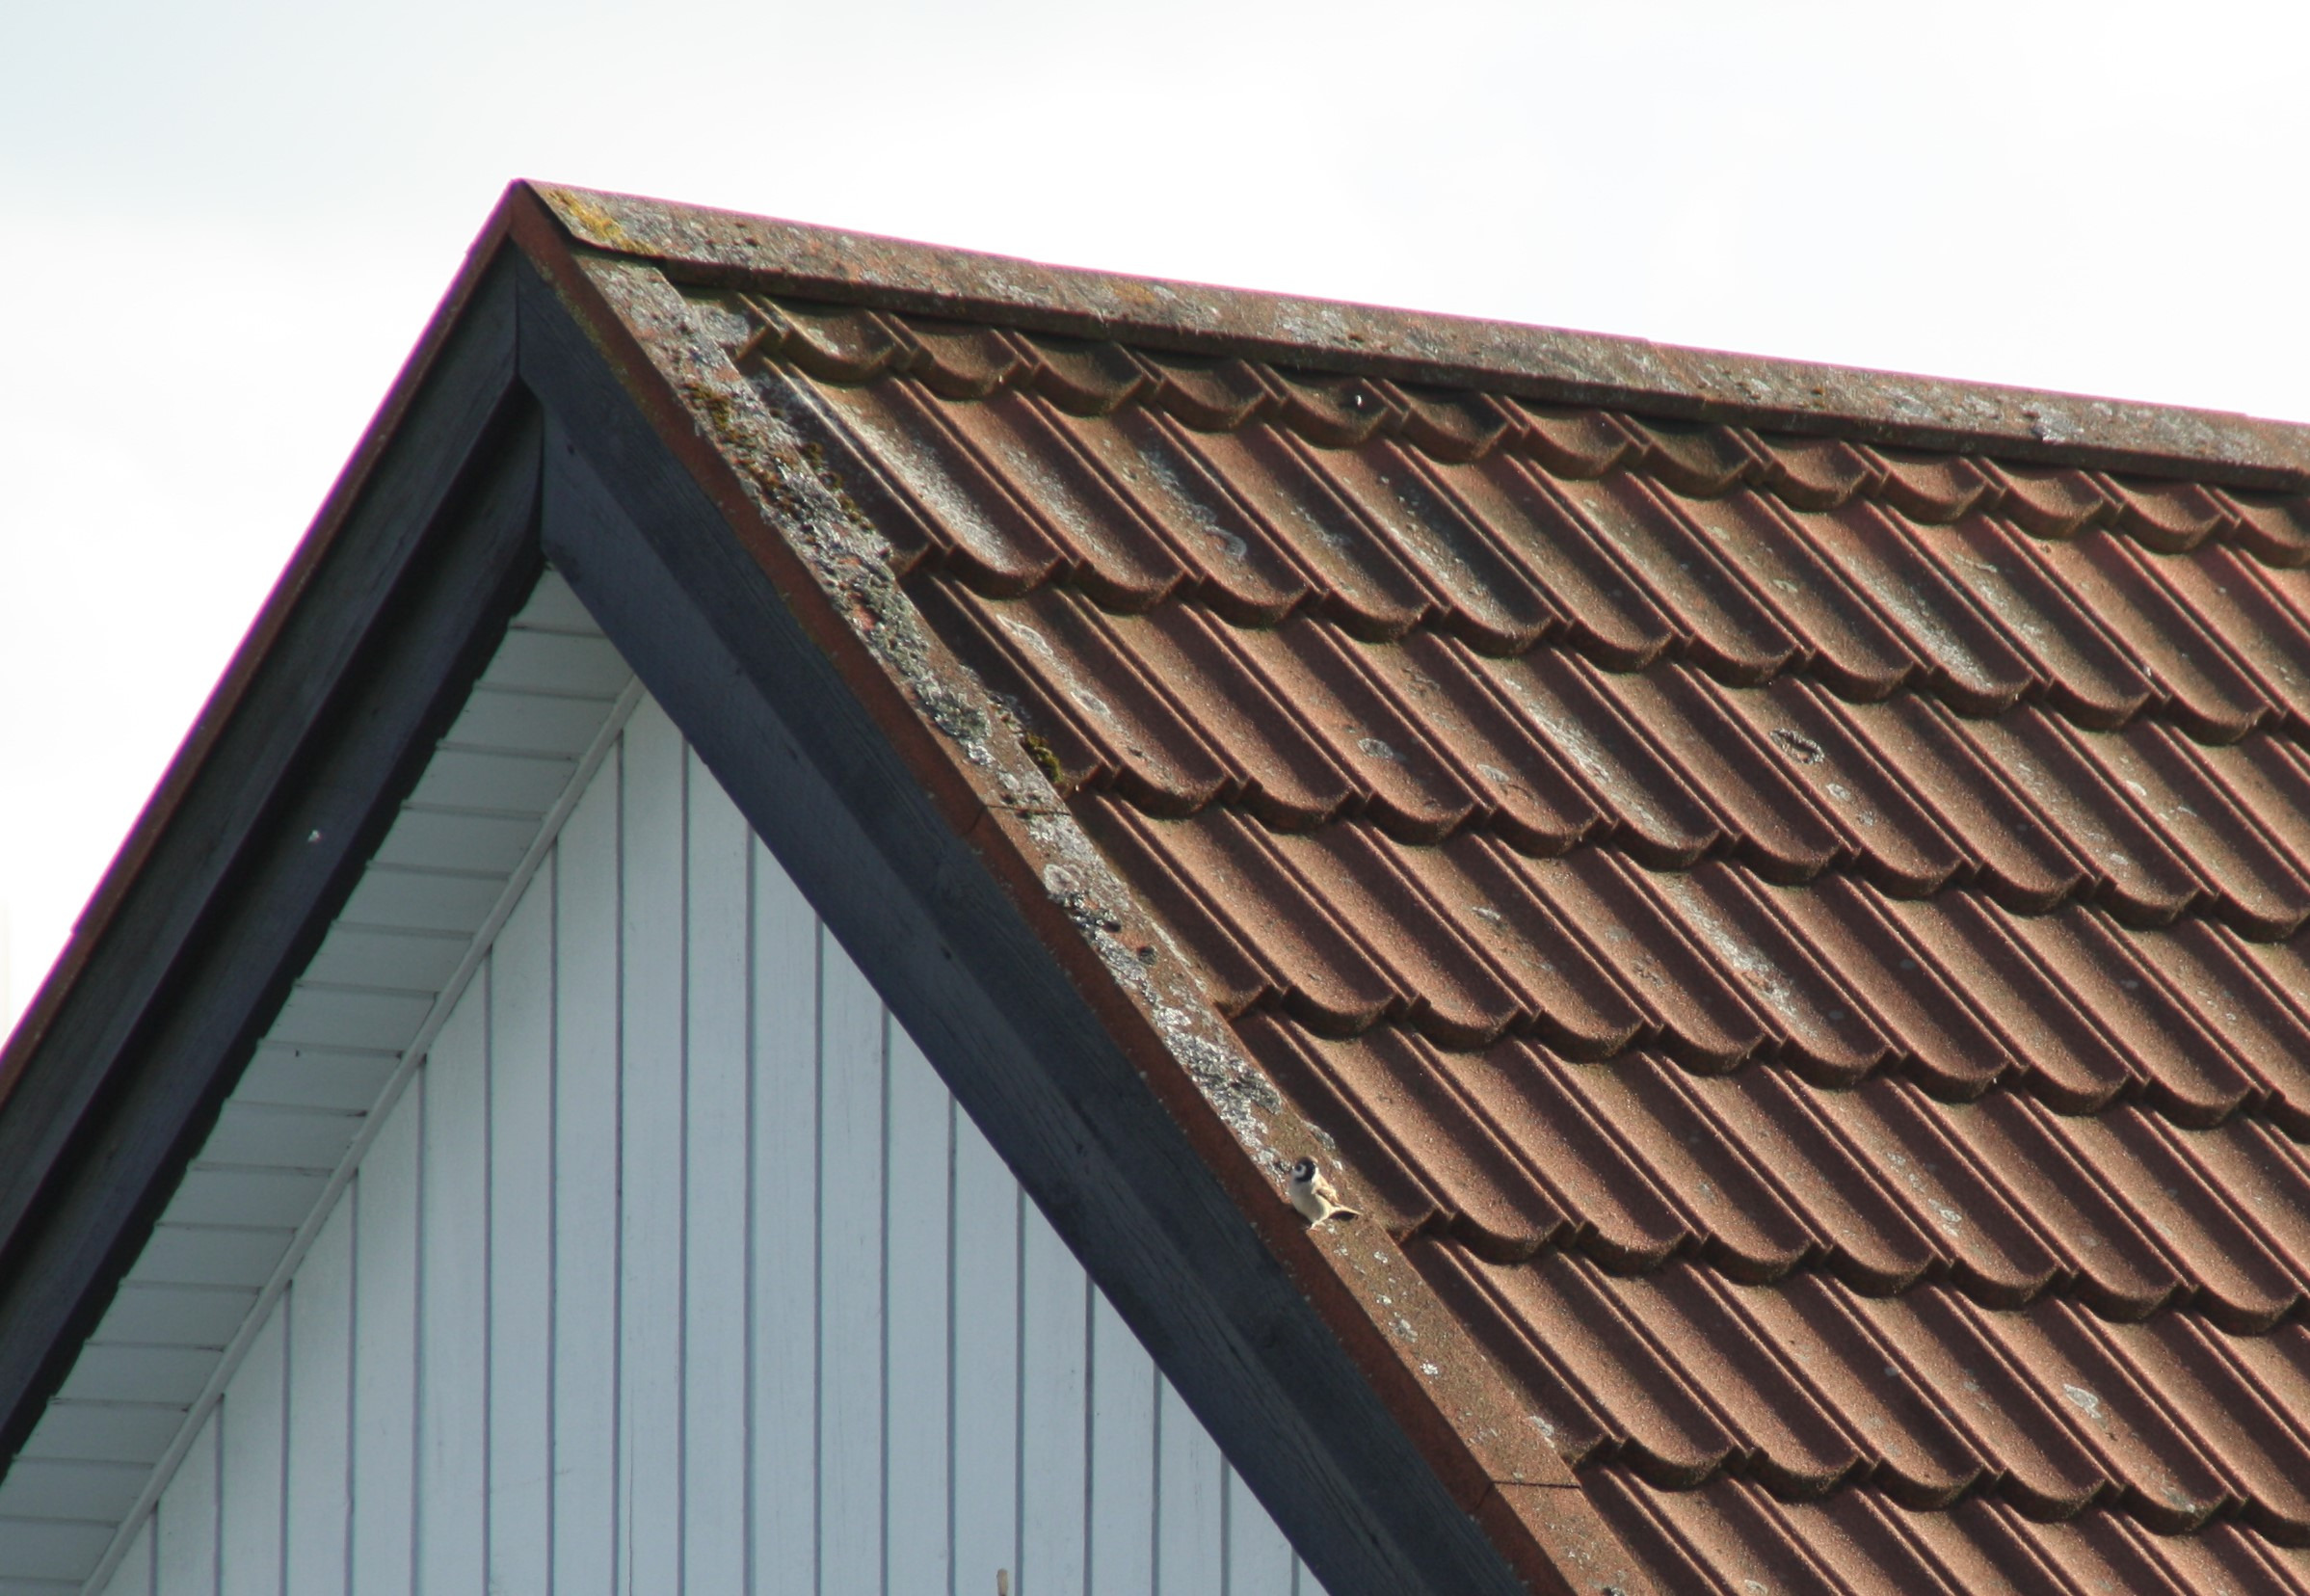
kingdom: Animalia
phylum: Chordata
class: Aves
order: Passeriformes
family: Passeridae
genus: Passer
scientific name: Passer montanus
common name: Skovspurv
